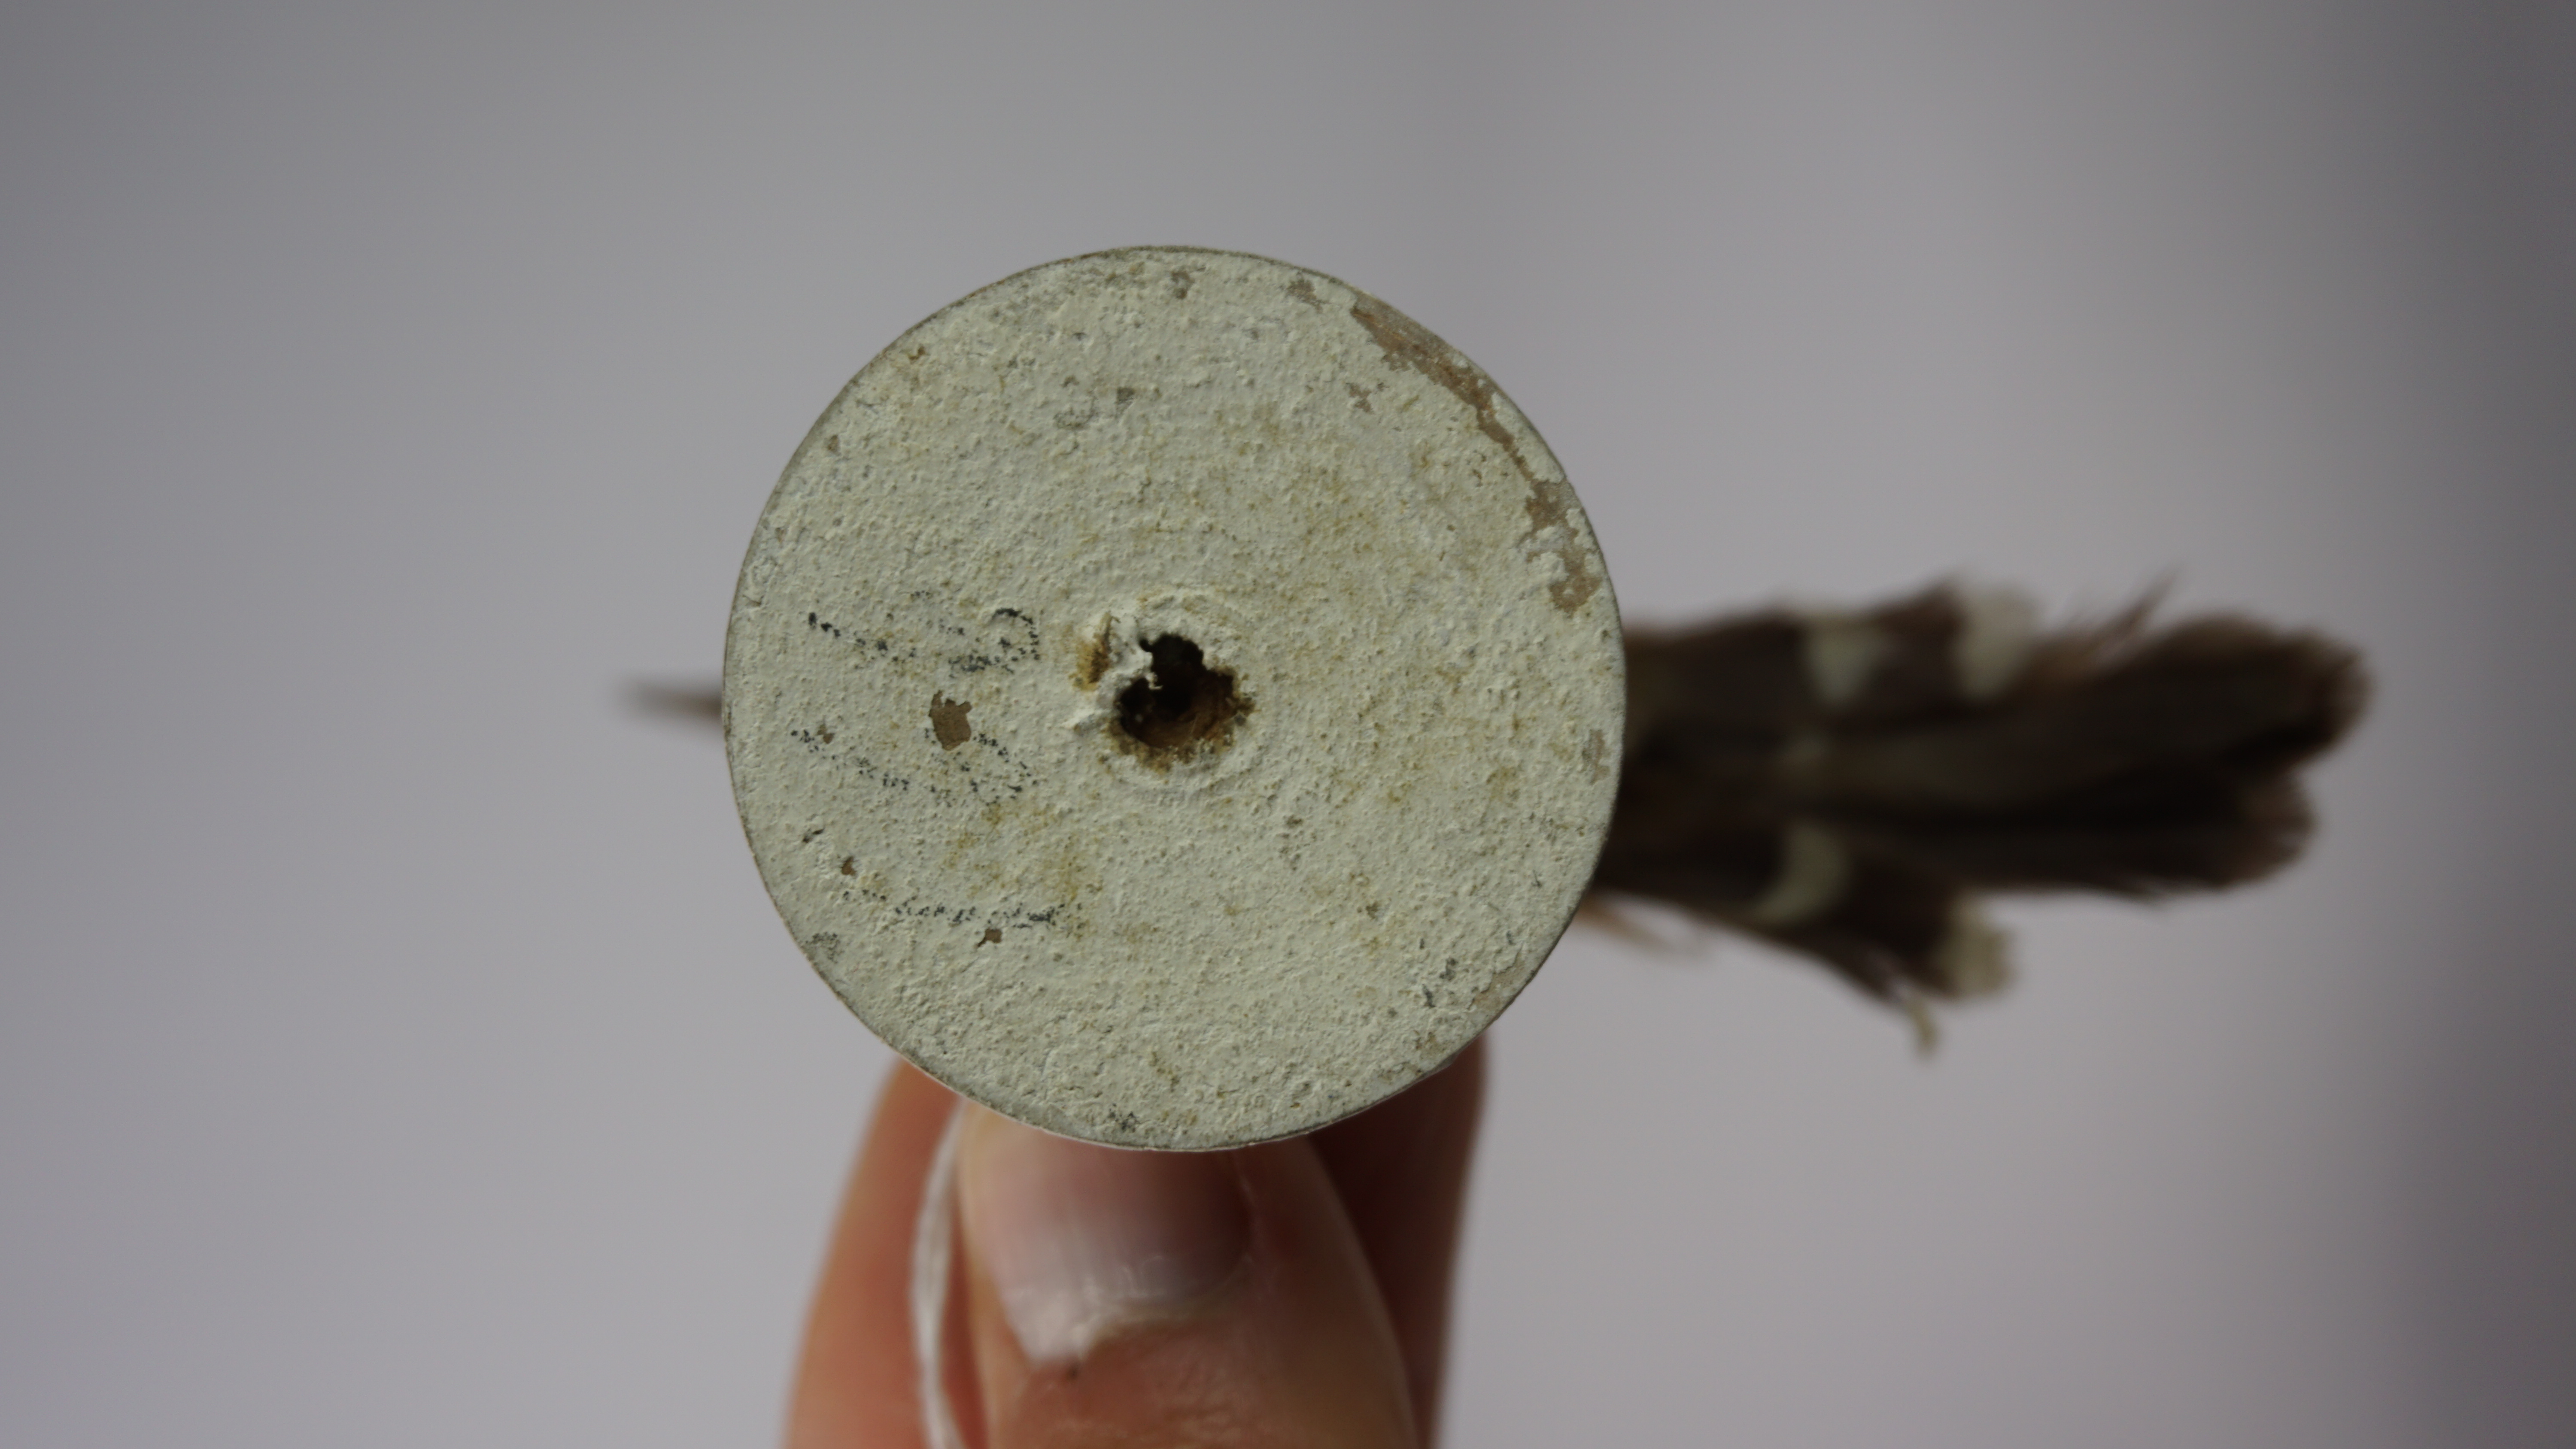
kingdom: Animalia
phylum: Chordata
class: Aves
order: Passeriformes
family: Thamnophilidae
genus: Formicivora
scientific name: Formicivora rufa
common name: Rusty-backed antwren
